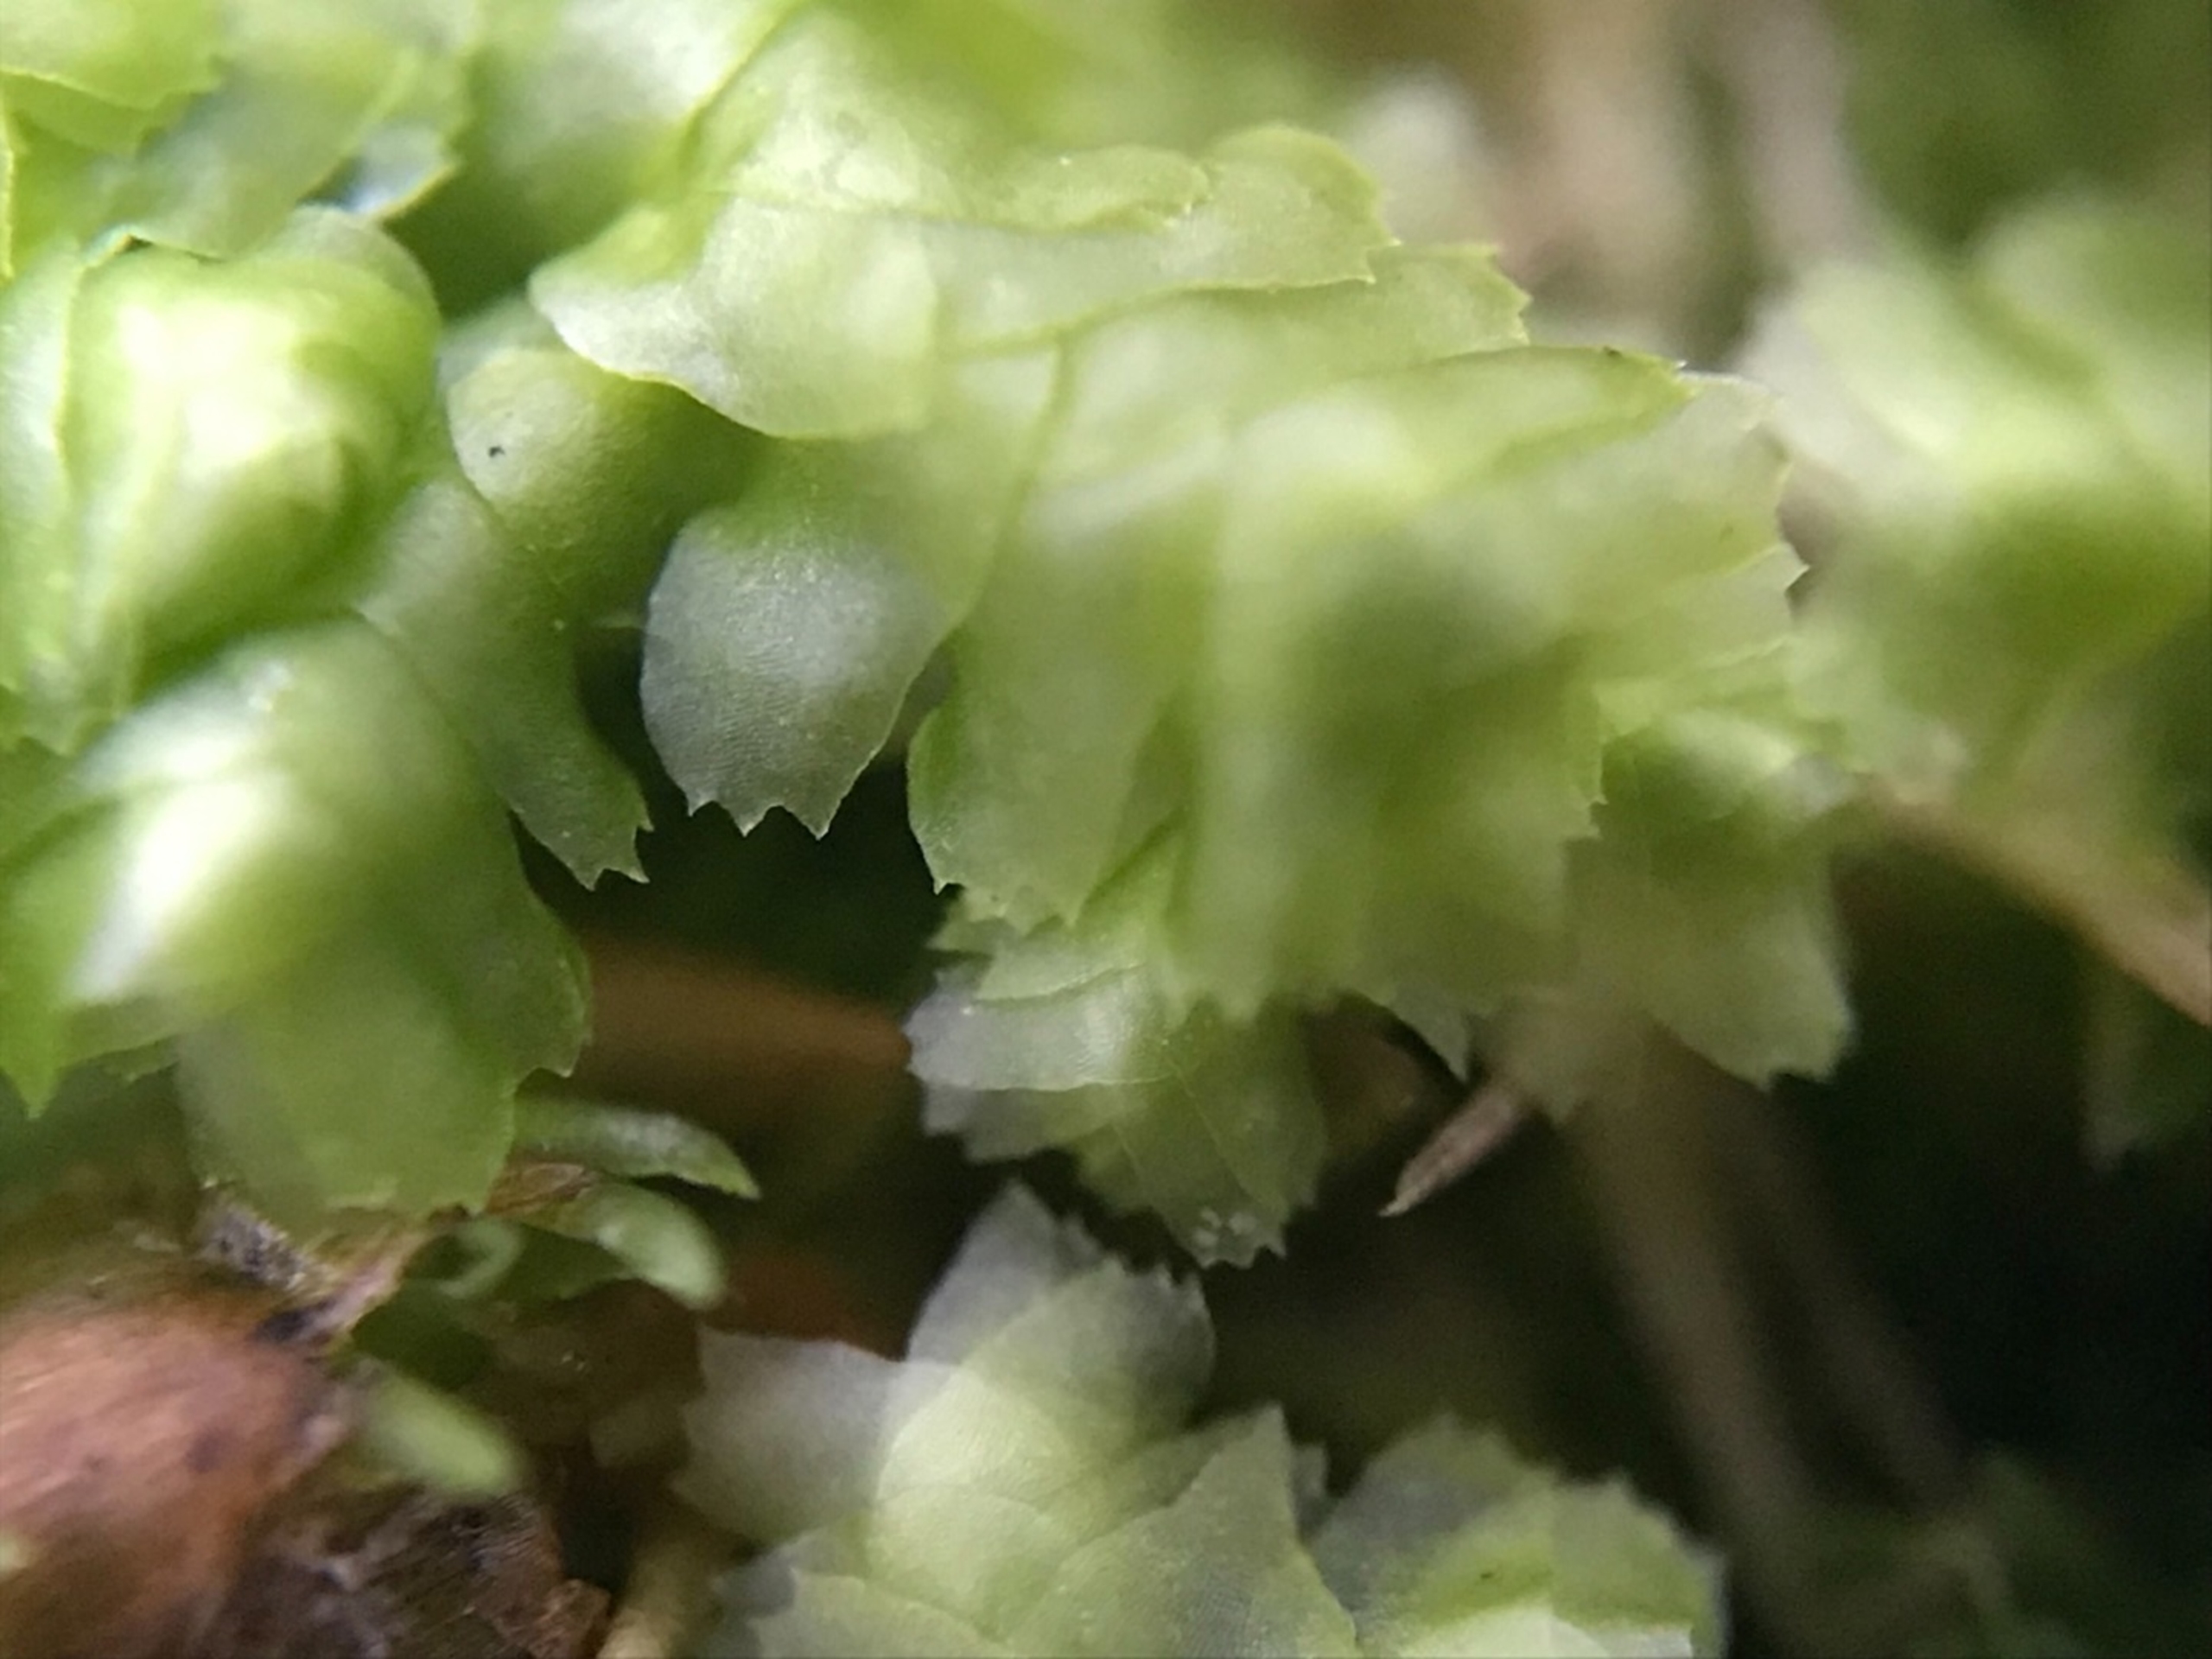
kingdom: Plantae
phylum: Marchantiophyta
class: Jungermanniopsida
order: Jungermanniales
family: Lepidoziaceae
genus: Bazzania
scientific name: Bazzania trilobata
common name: Stor styltemos
